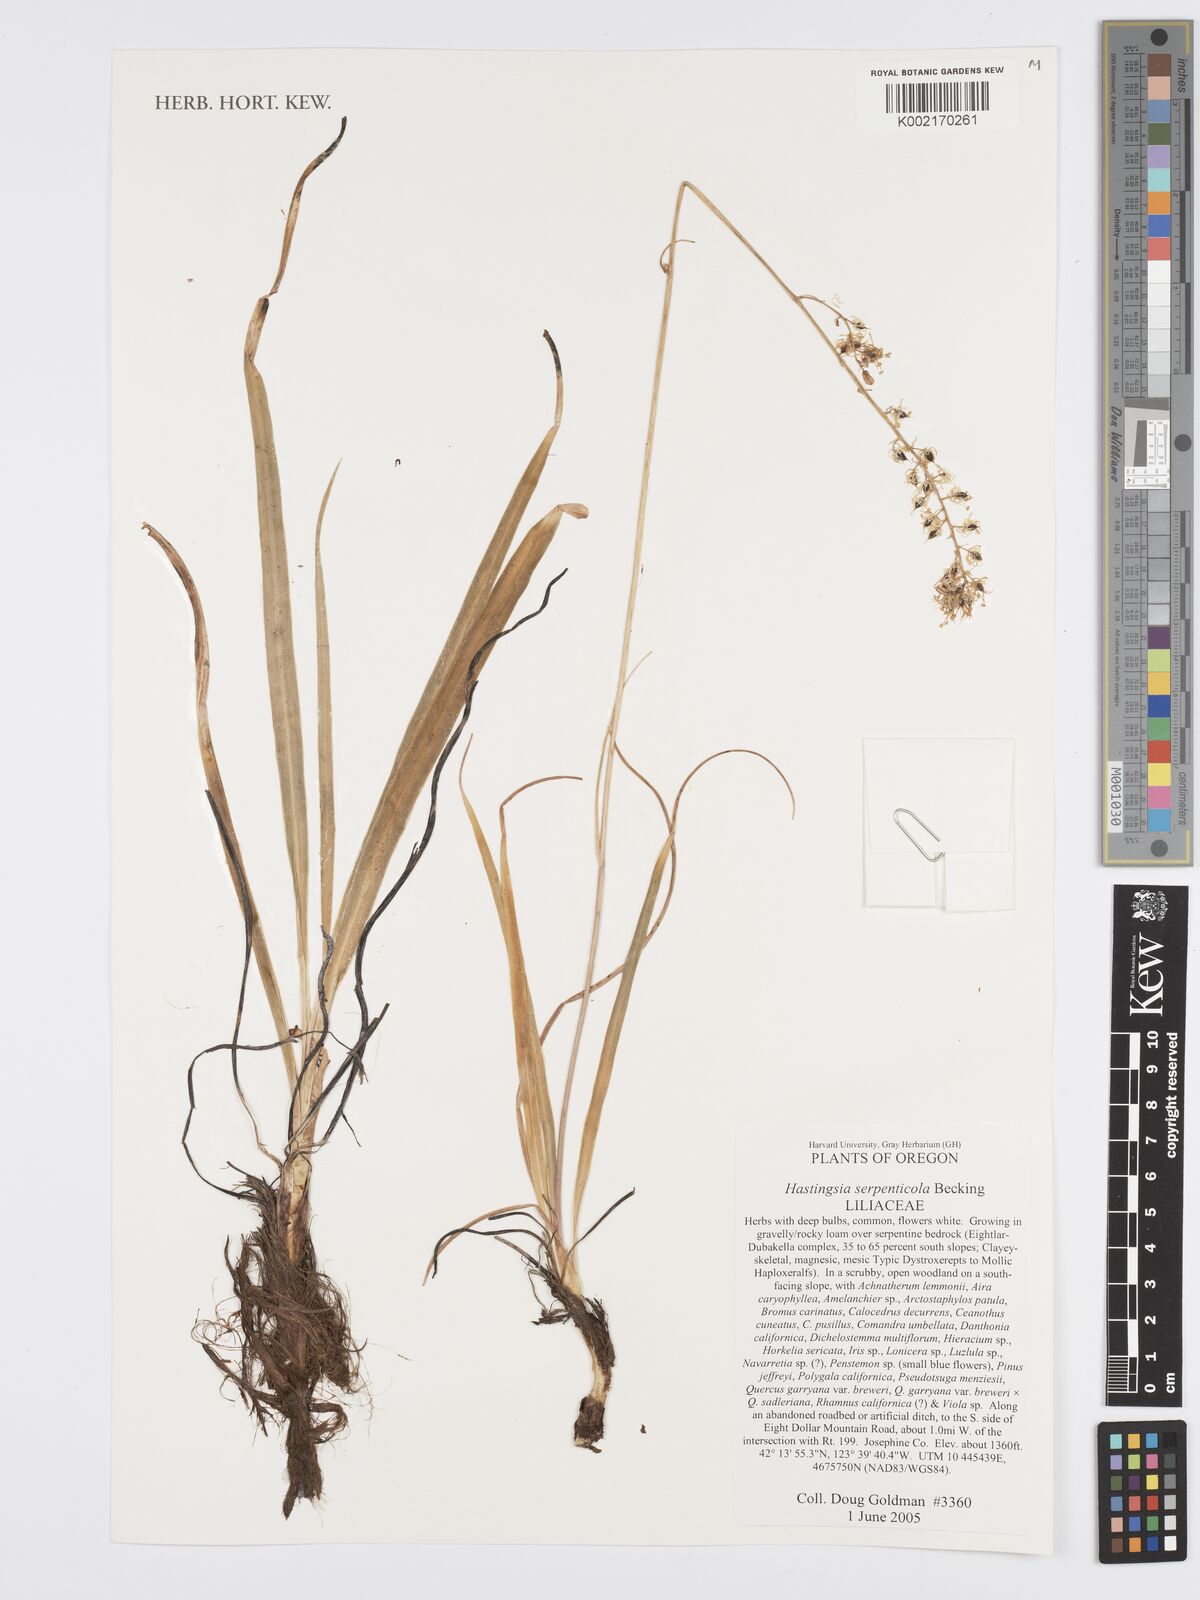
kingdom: Plantae
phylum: Tracheophyta
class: Liliopsida
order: Asparagales
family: Asparagaceae
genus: Hastingsia
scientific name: Hastingsia serpentinicola
